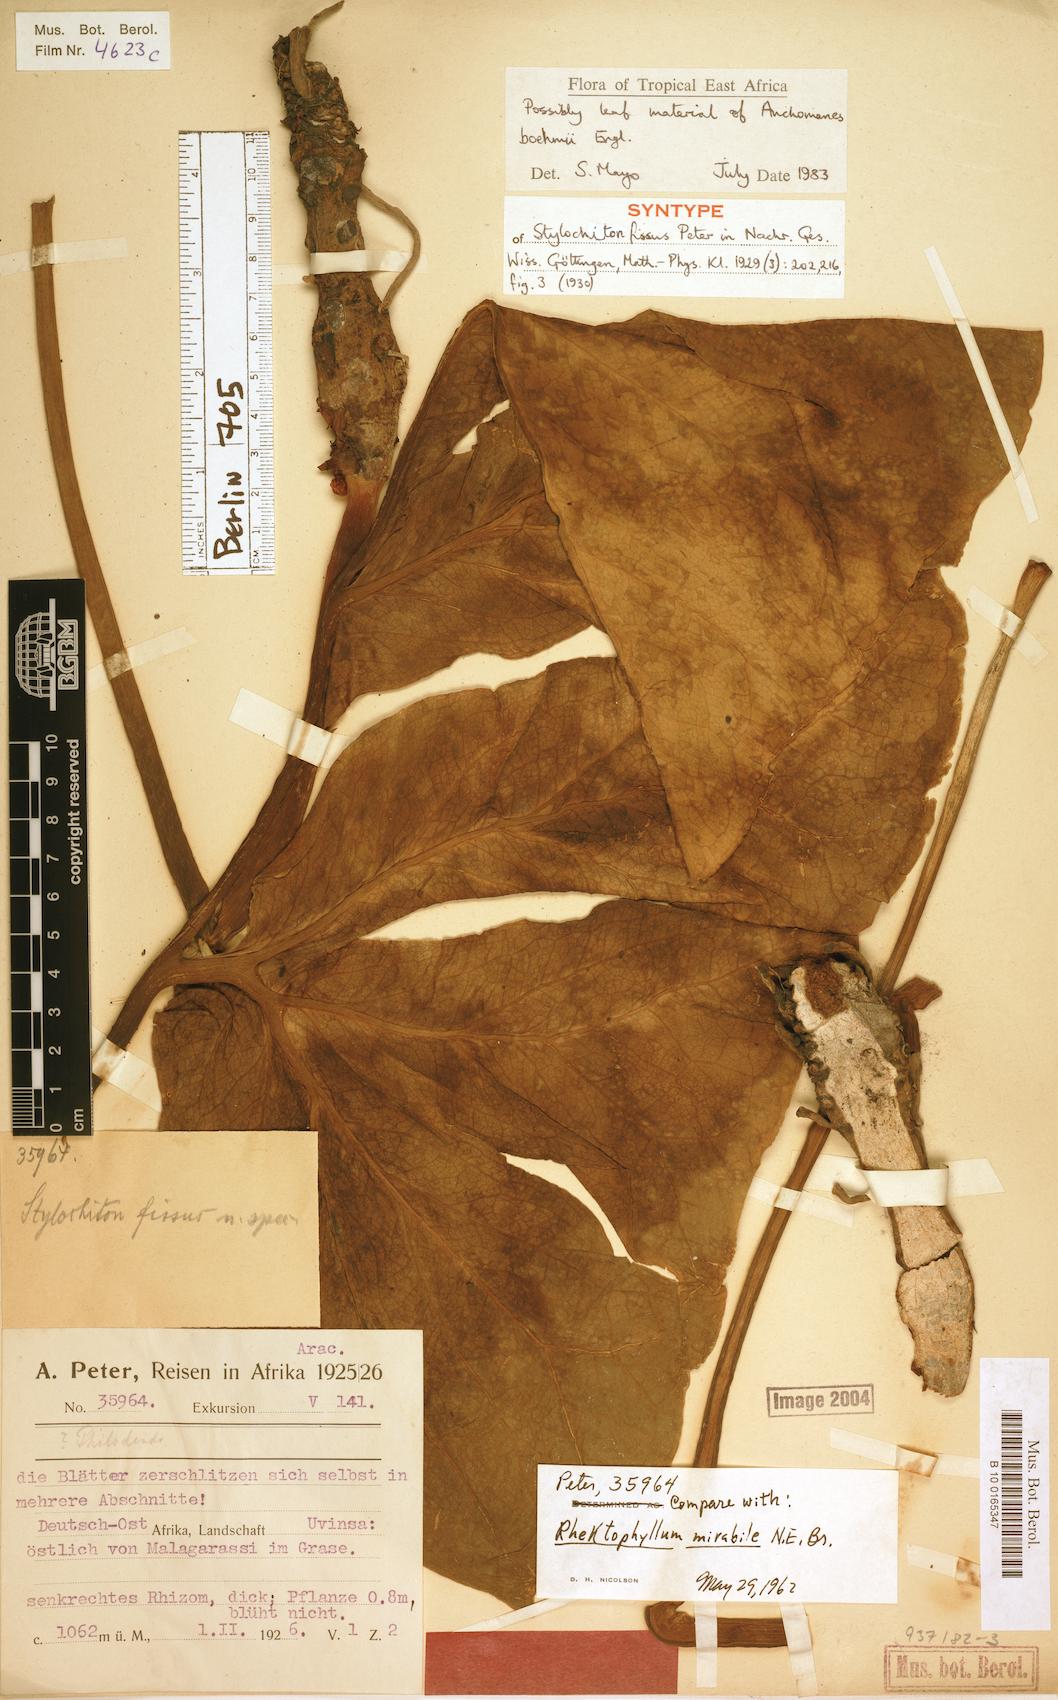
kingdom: Plantae
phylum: Tracheophyta
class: Liliopsida
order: Alismatales
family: Araceae
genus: Anchomanes
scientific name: Anchomanes boehmii
